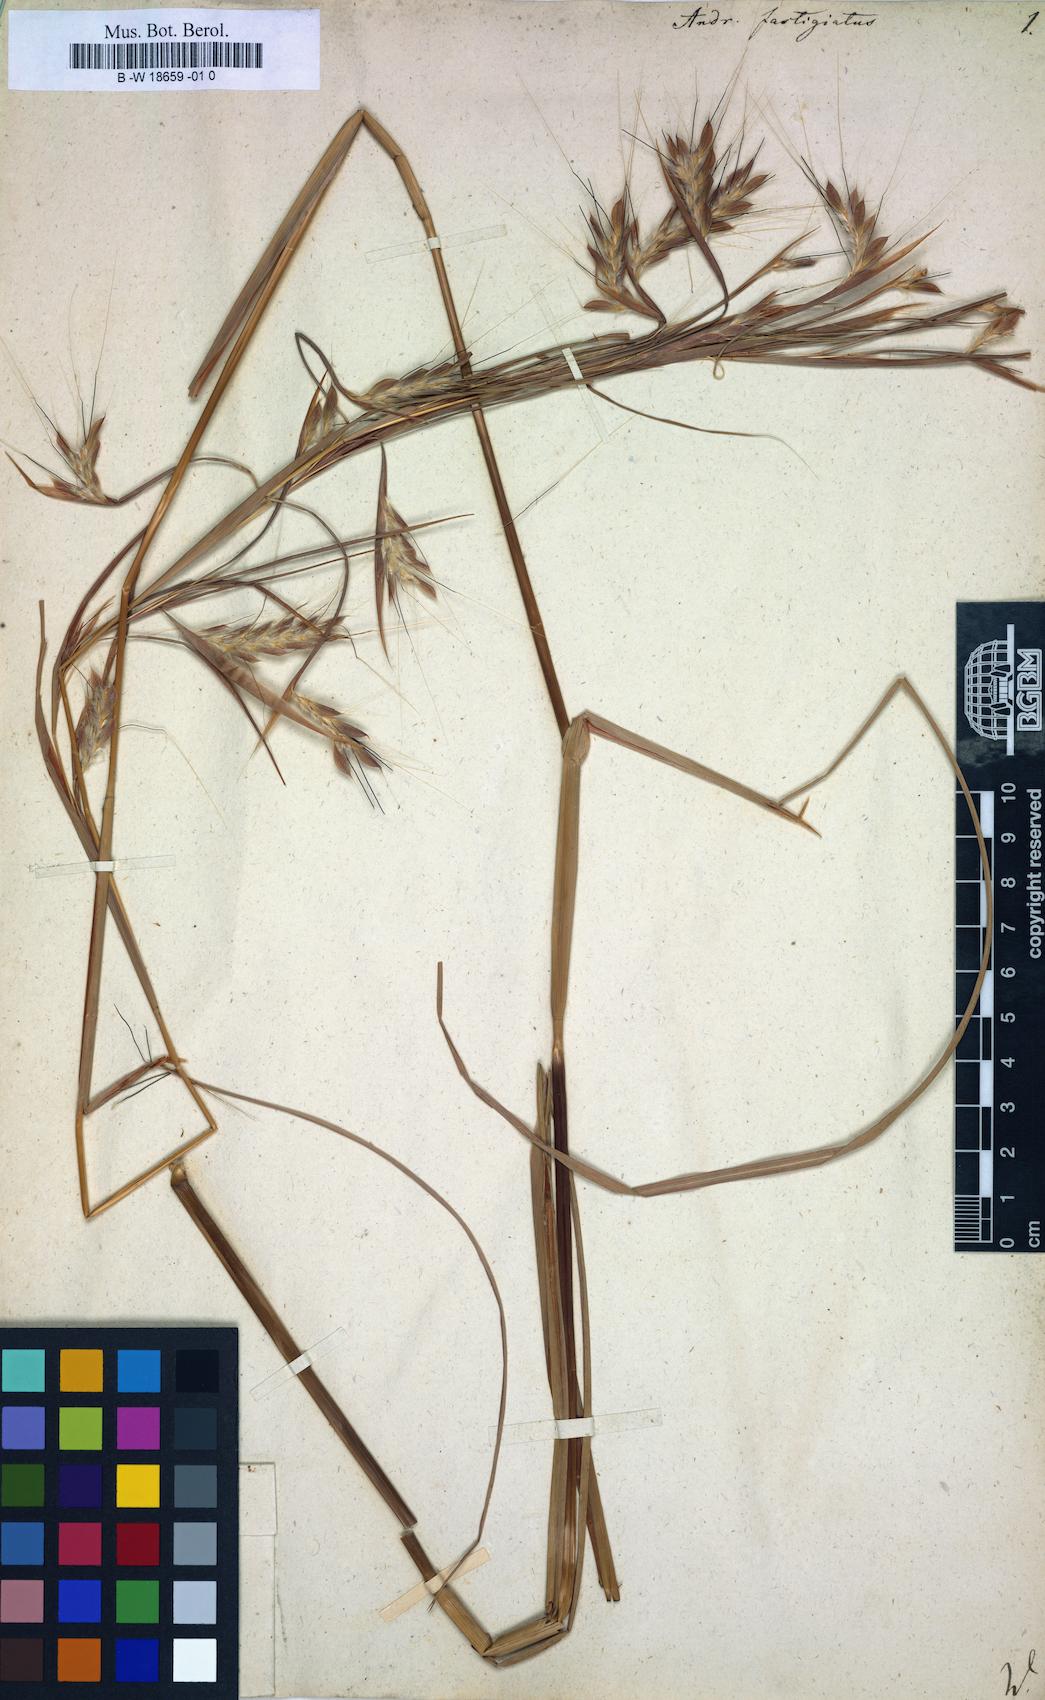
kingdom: Plantae
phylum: Tracheophyta
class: Liliopsida
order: Poales
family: Poaceae
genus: Diectomis
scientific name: Diectomis fastigiata
